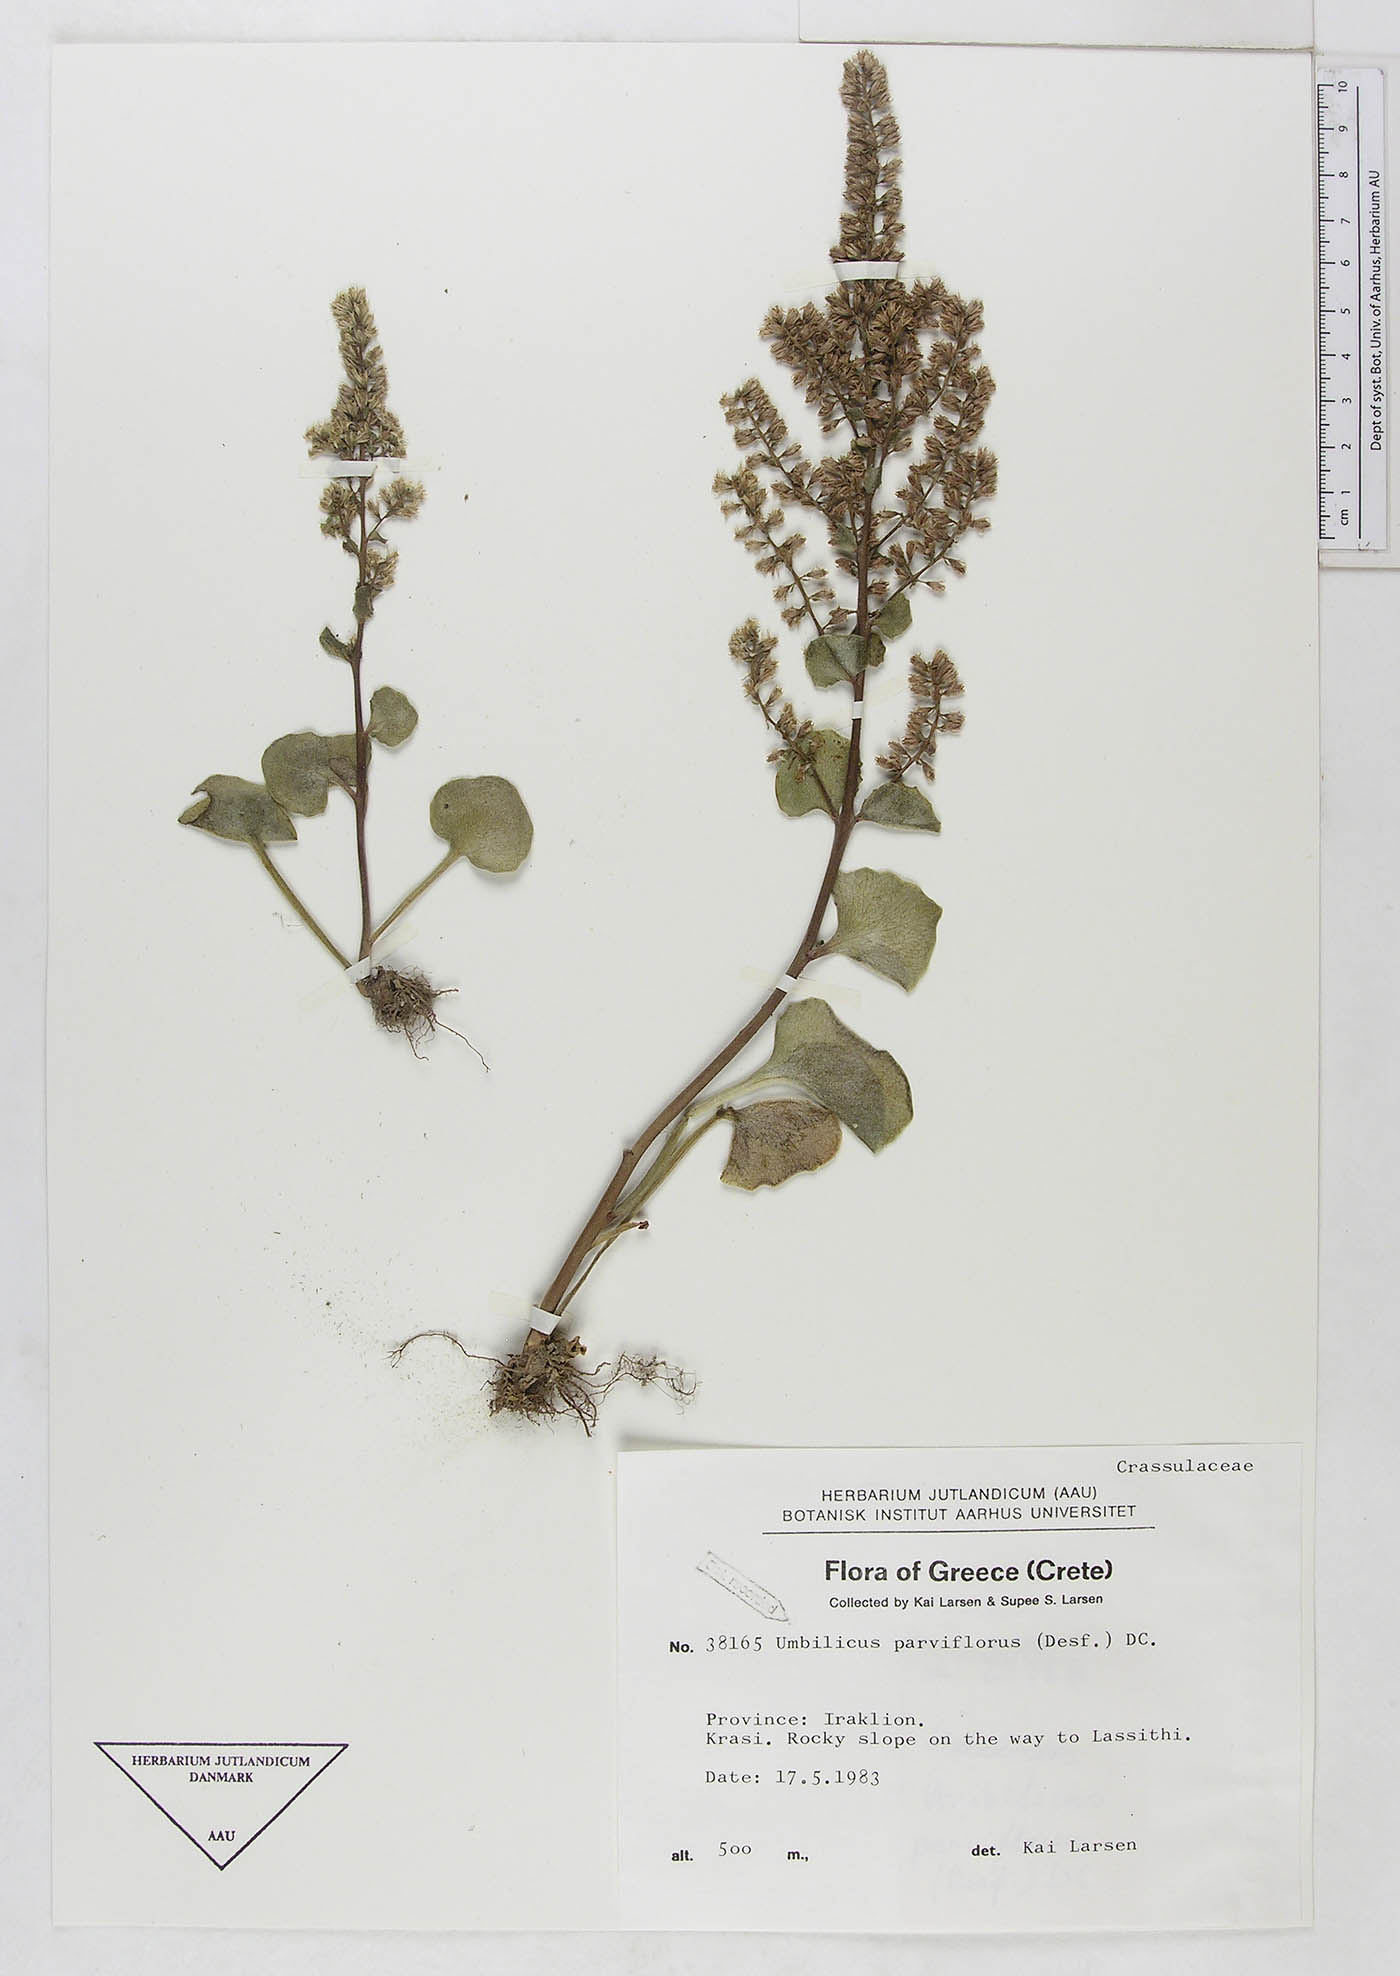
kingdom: Plantae
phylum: Tracheophyta
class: Magnoliopsida
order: Saxifragales
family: Crassulaceae
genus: Umbilicus
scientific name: Umbilicus parviflorus
